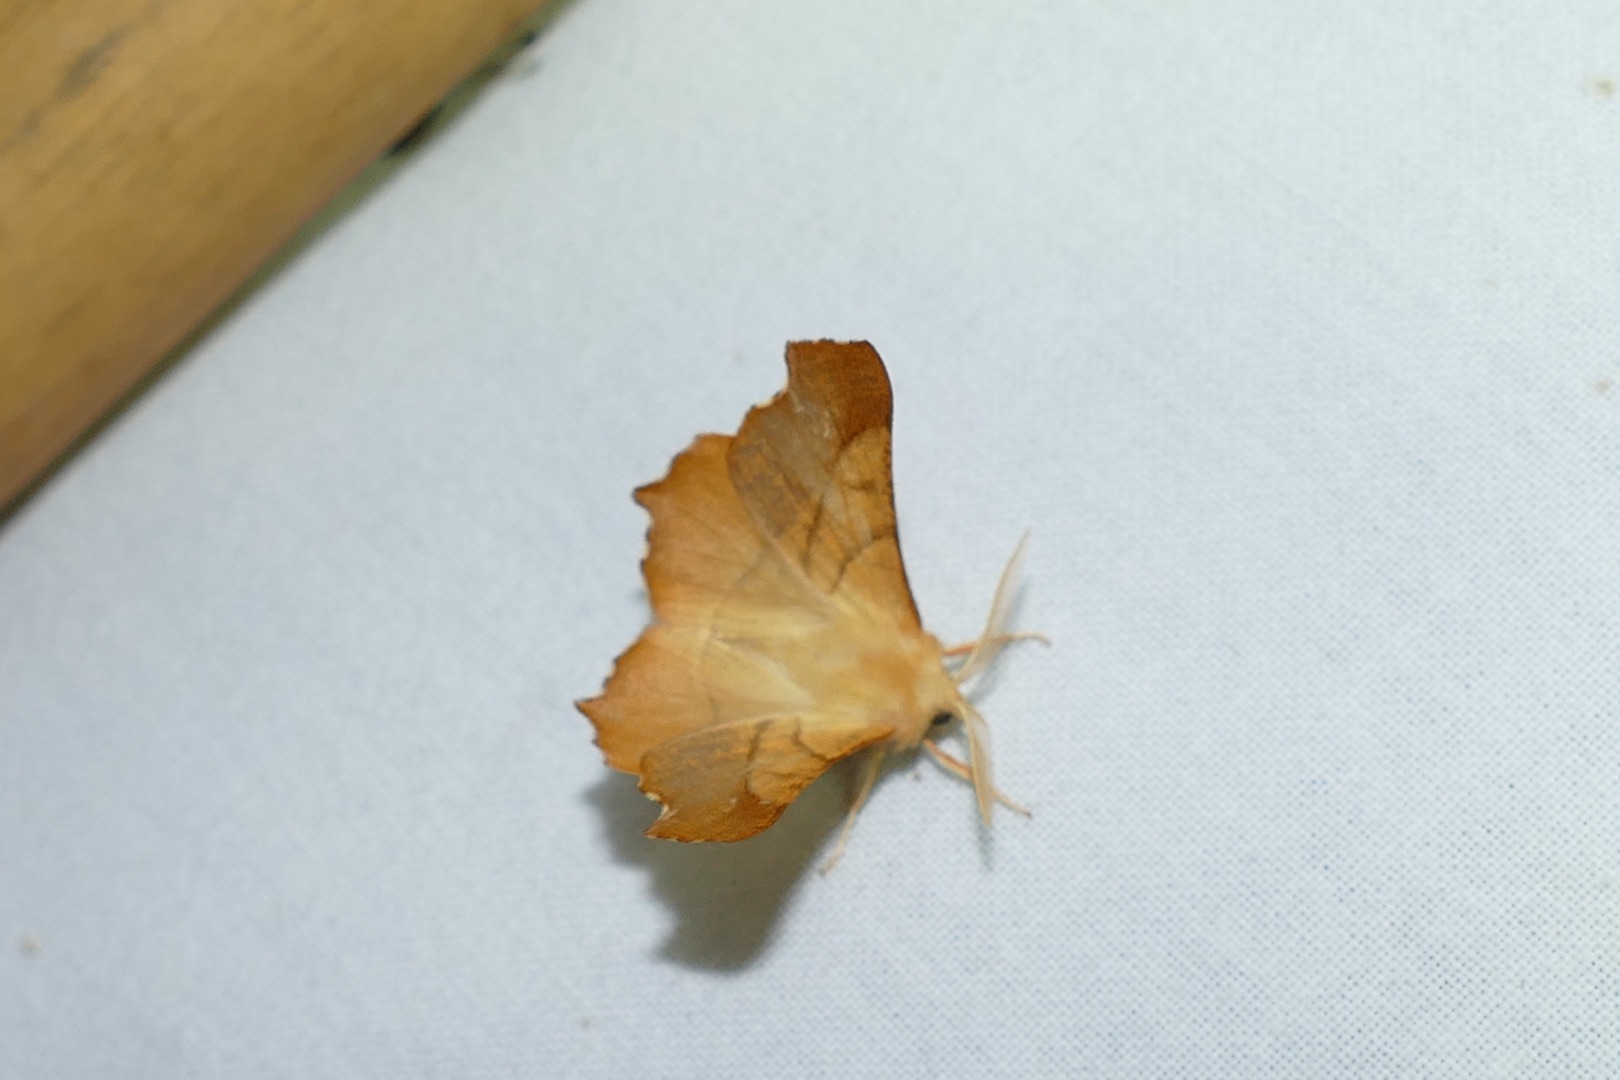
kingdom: Animalia
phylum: Arthropoda
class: Insecta
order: Lepidoptera
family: Geometridae
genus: Ennomos
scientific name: Ennomos fuscantaria
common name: Asketandmåler
